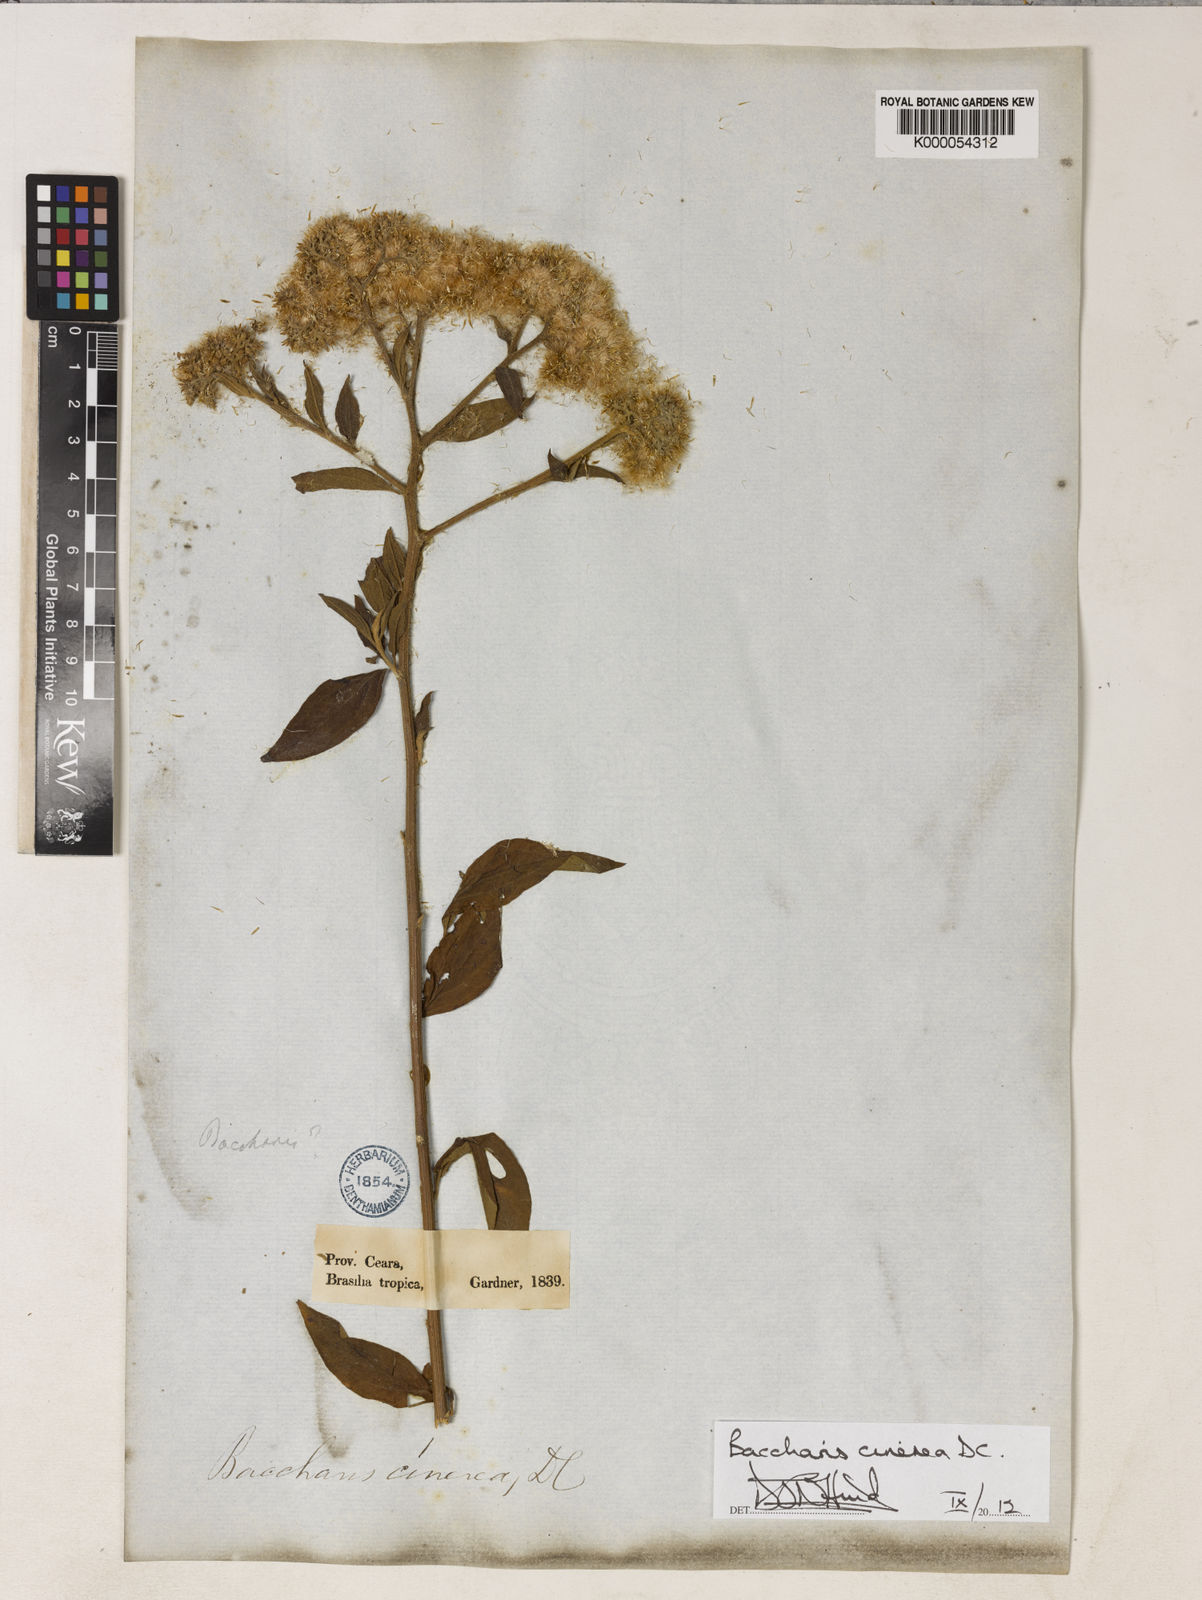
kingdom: Plantae
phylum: Tracheophyta
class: Magnoliopsida
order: Asterales
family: Asteraceae
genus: Baccharis
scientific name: Baccharis trinervis
